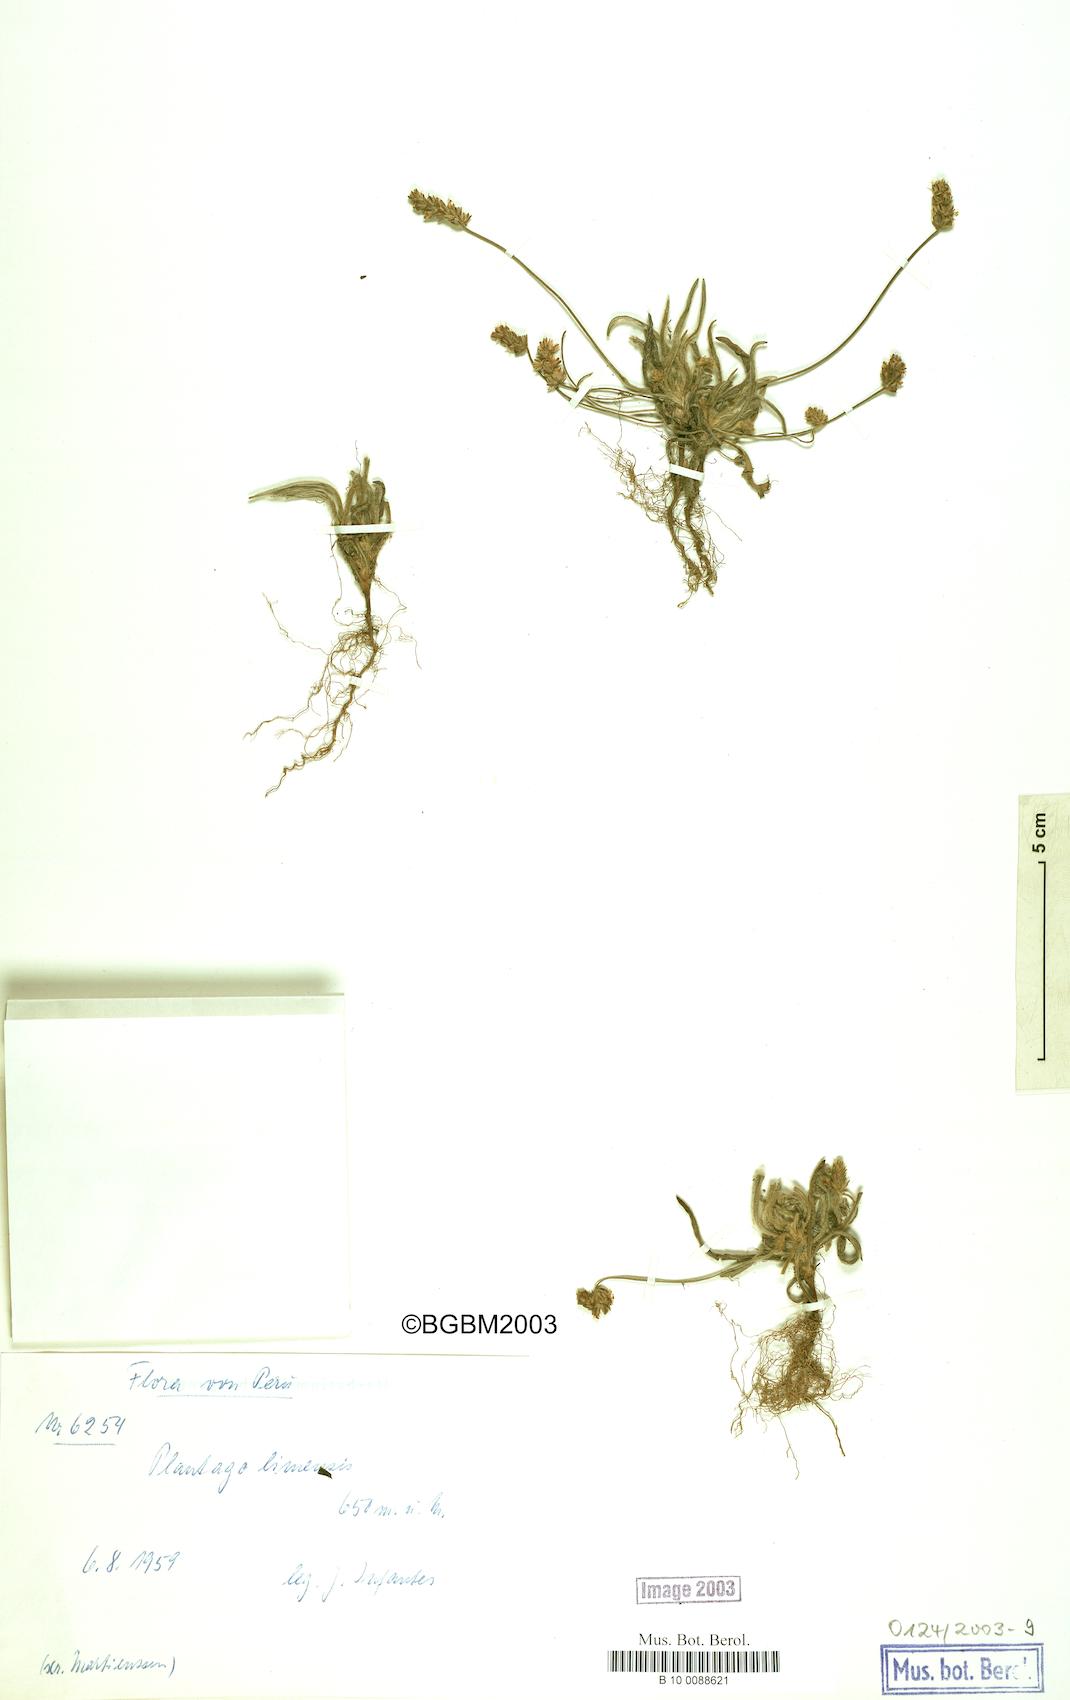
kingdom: Plantae
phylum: Tracheophyta
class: Magnoliopsida
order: Lamiales
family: Plantaginaceae
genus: Plantago
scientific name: Plantago linearis
